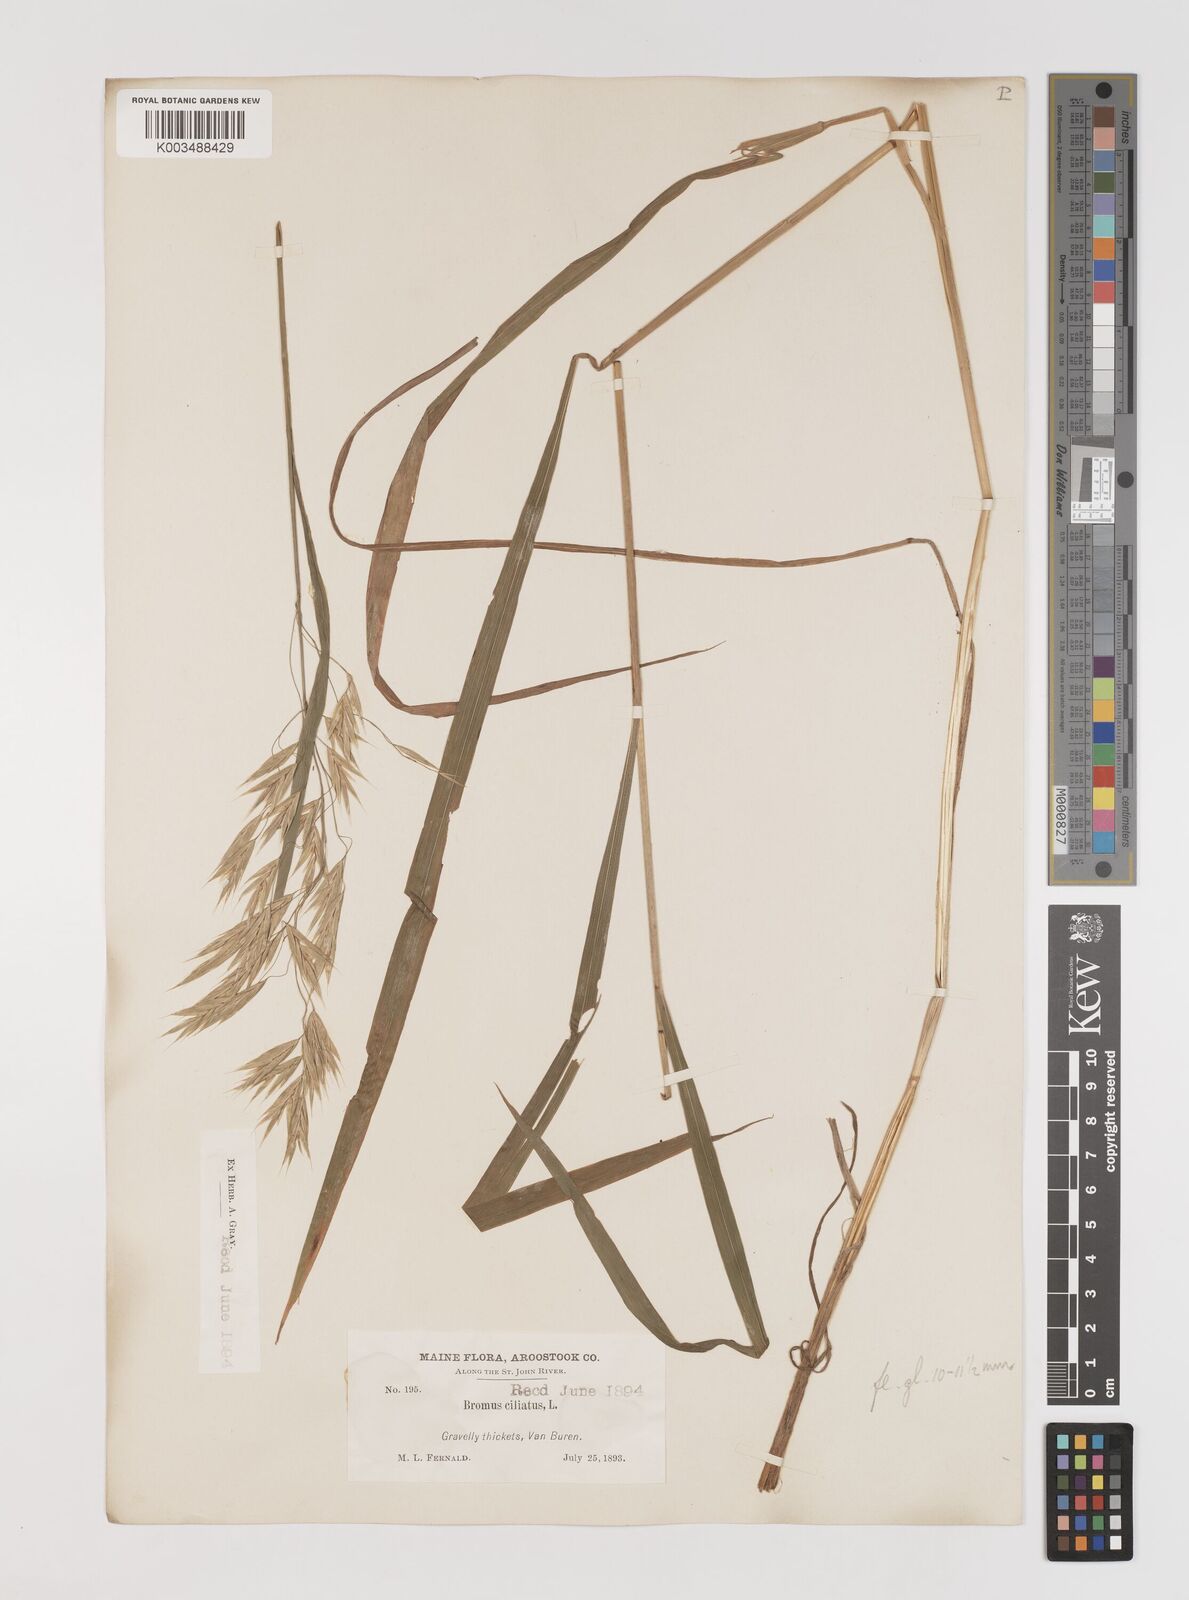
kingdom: Plantae
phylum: Tracheophyta
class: Liliopsida
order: Poales
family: Poaceae
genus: Bromus
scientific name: Bromus ciliatus
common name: Fringe brome
